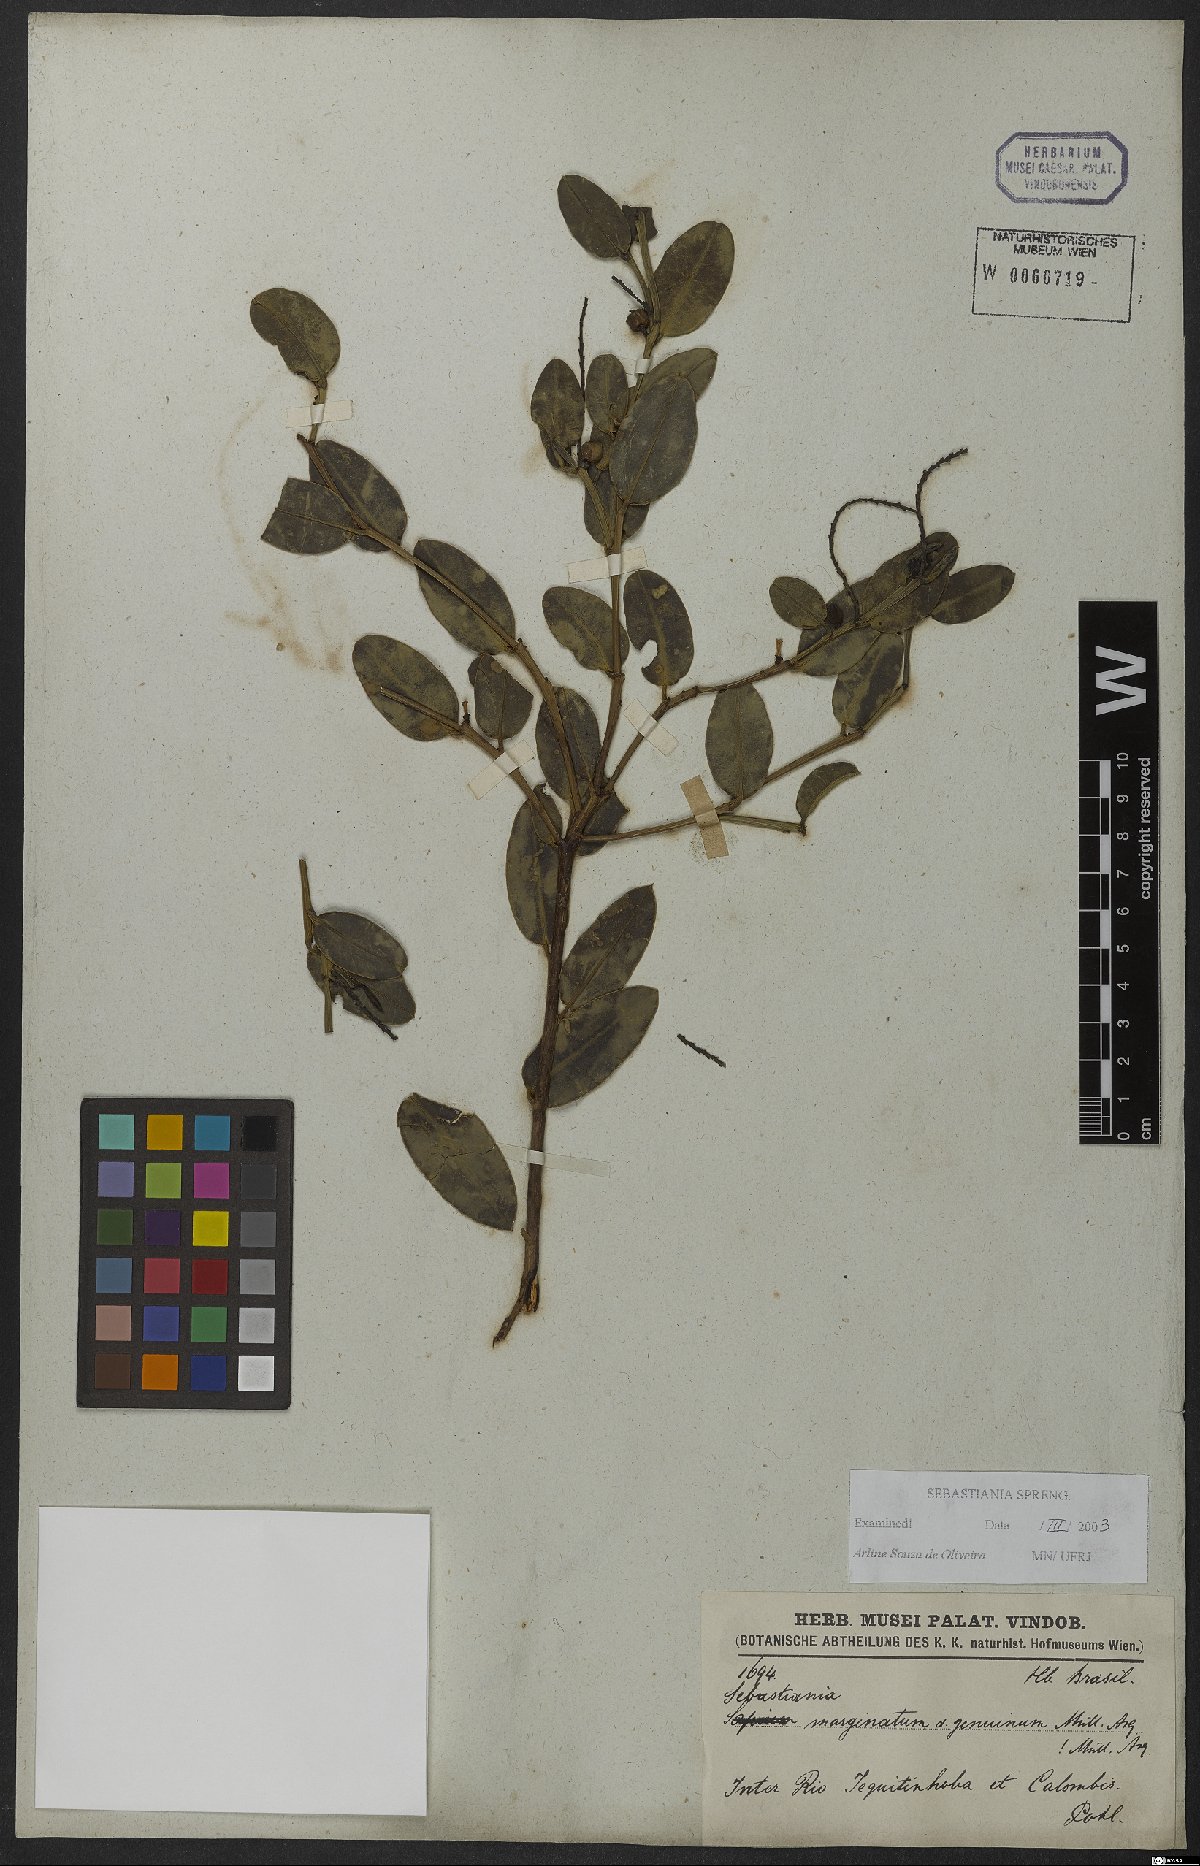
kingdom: Plantae
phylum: Tracheophyta
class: Magnoliopsida
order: Malpighiales
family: Euphorbiaceae
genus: Microstachys
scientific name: Microstachys marginata
